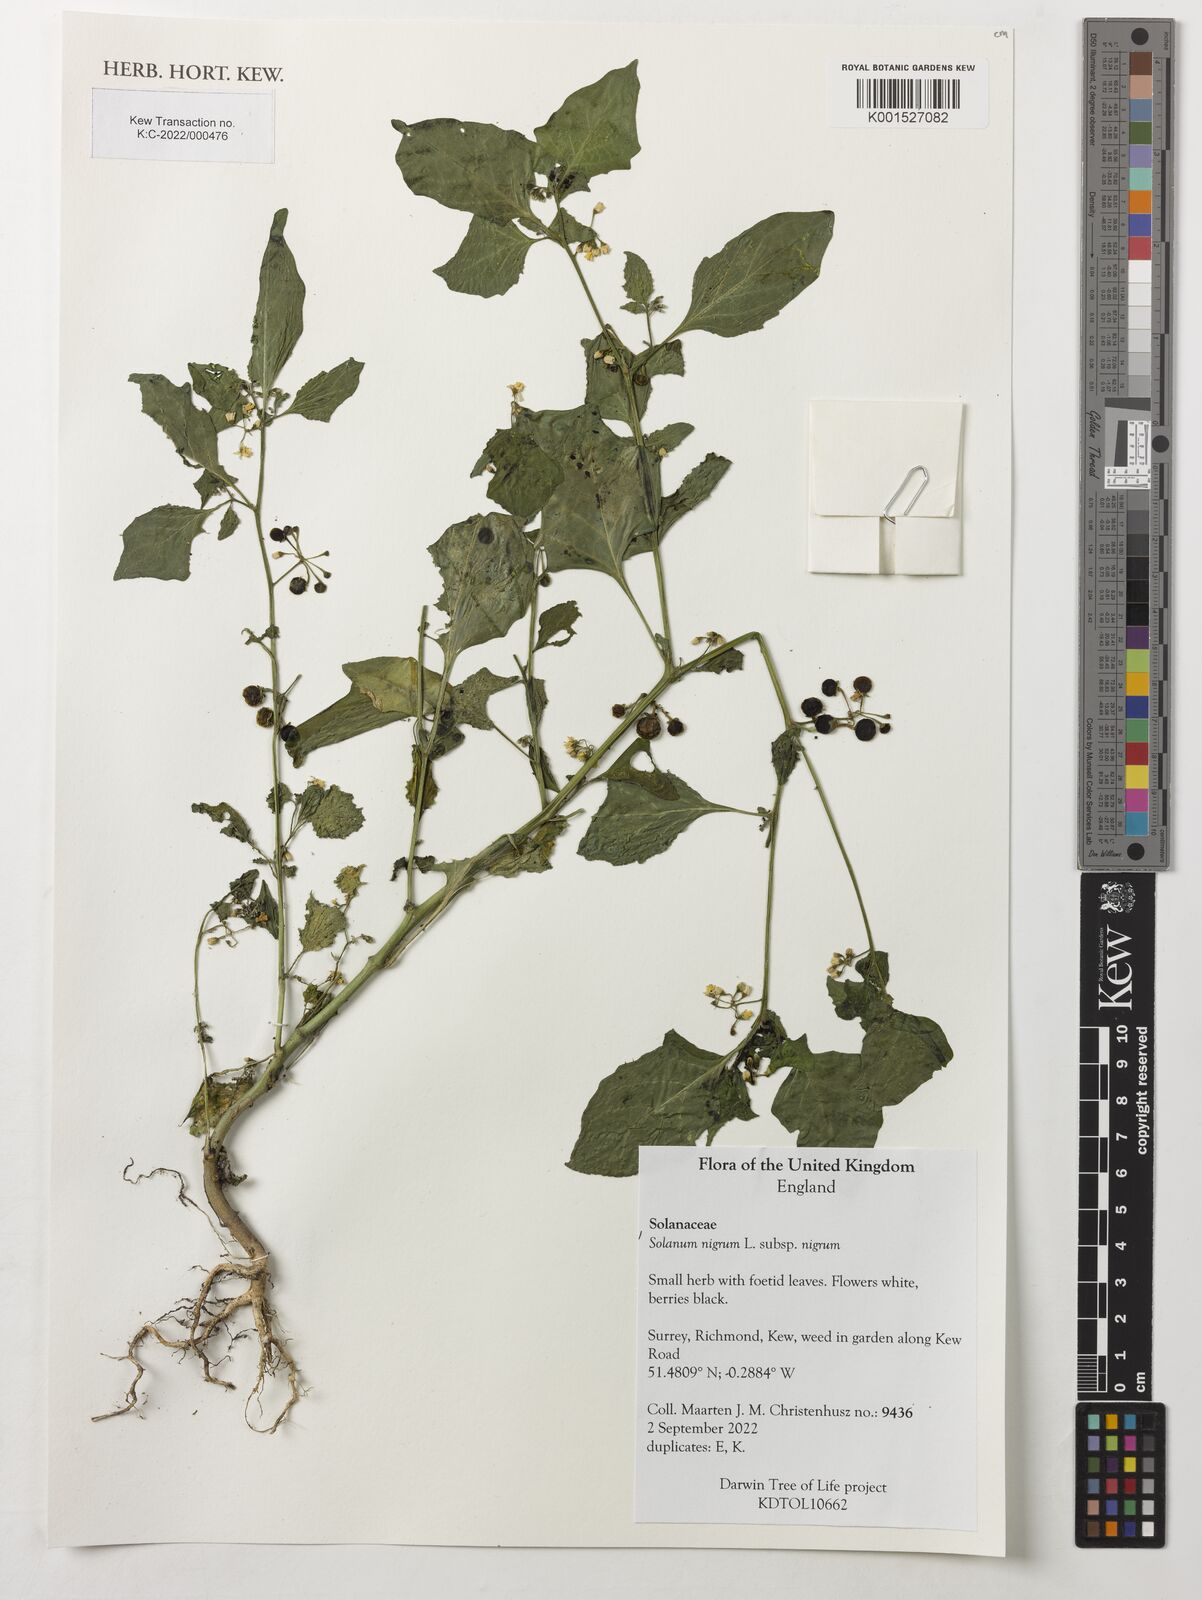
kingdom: Plantae
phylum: Tracheophyta
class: Magnoliopsida
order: Solanales
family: Solanaceae
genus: Solanum
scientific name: Solanum nigrum
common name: Black nightshade
